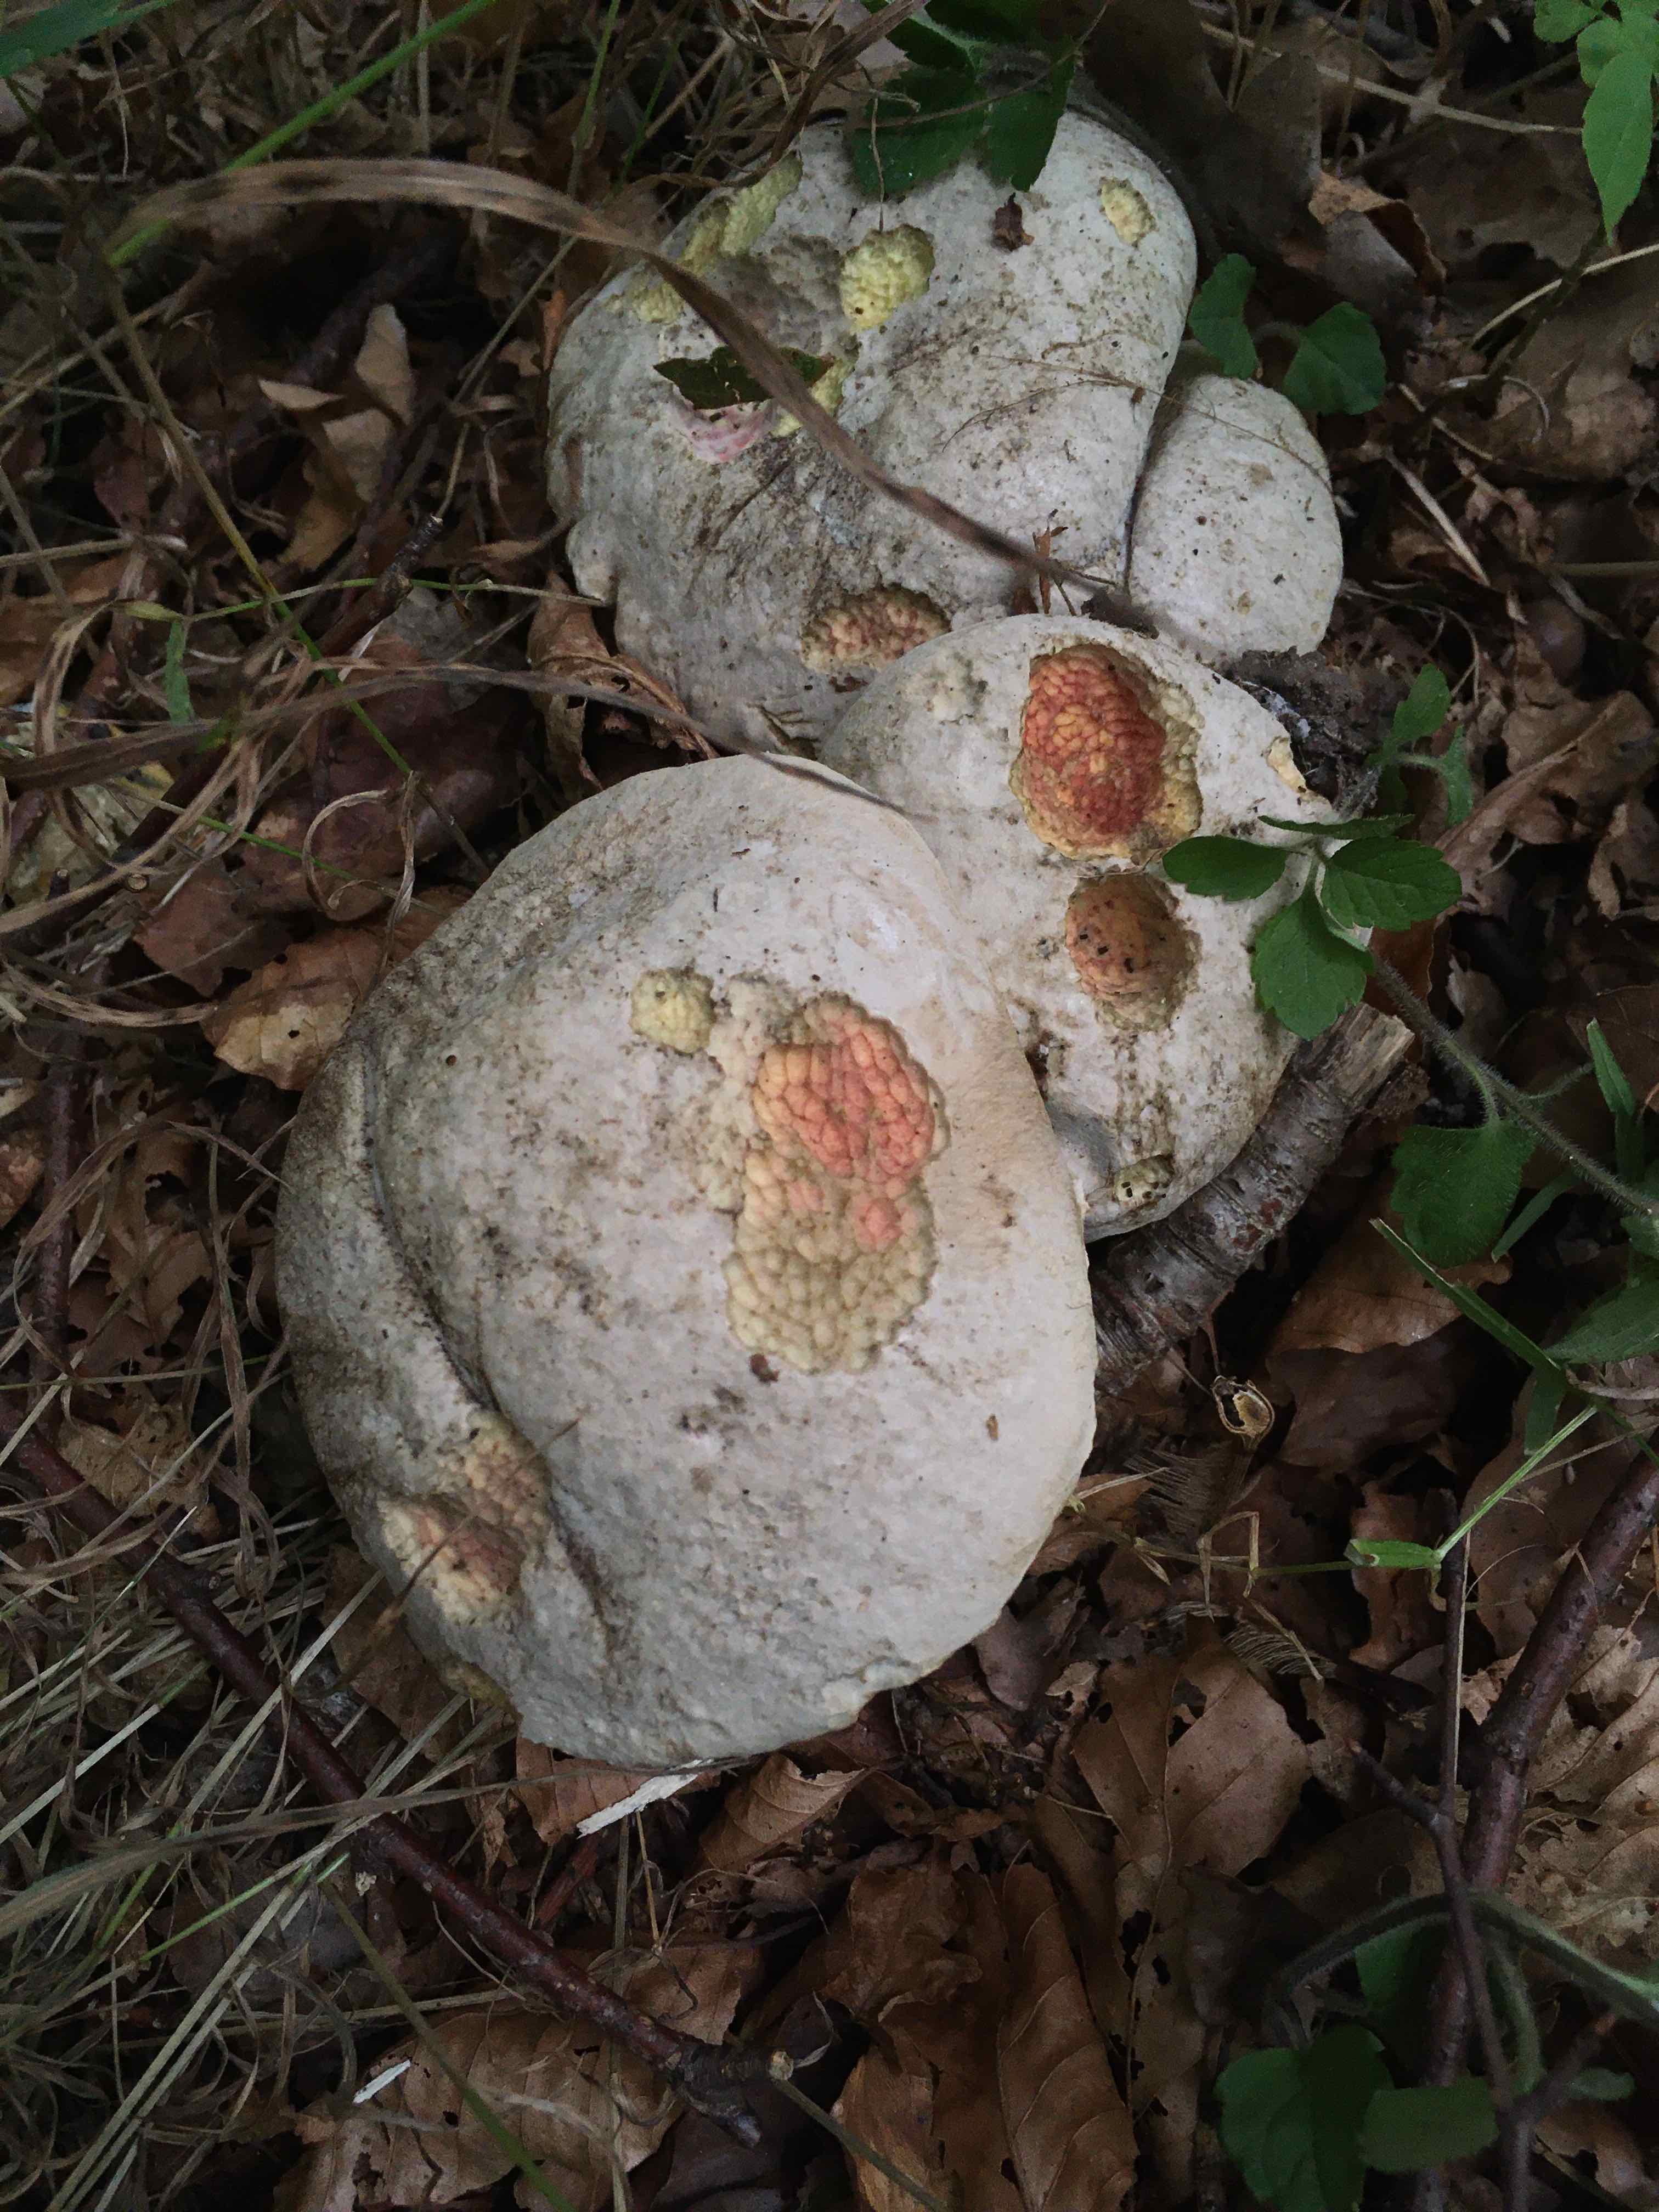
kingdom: Fungi
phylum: Basidiomycota
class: Agaricomycetes
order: Boletales
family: Boletaceae
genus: Caloboletus
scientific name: Caloboletus radicans
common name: rod-rørhat
